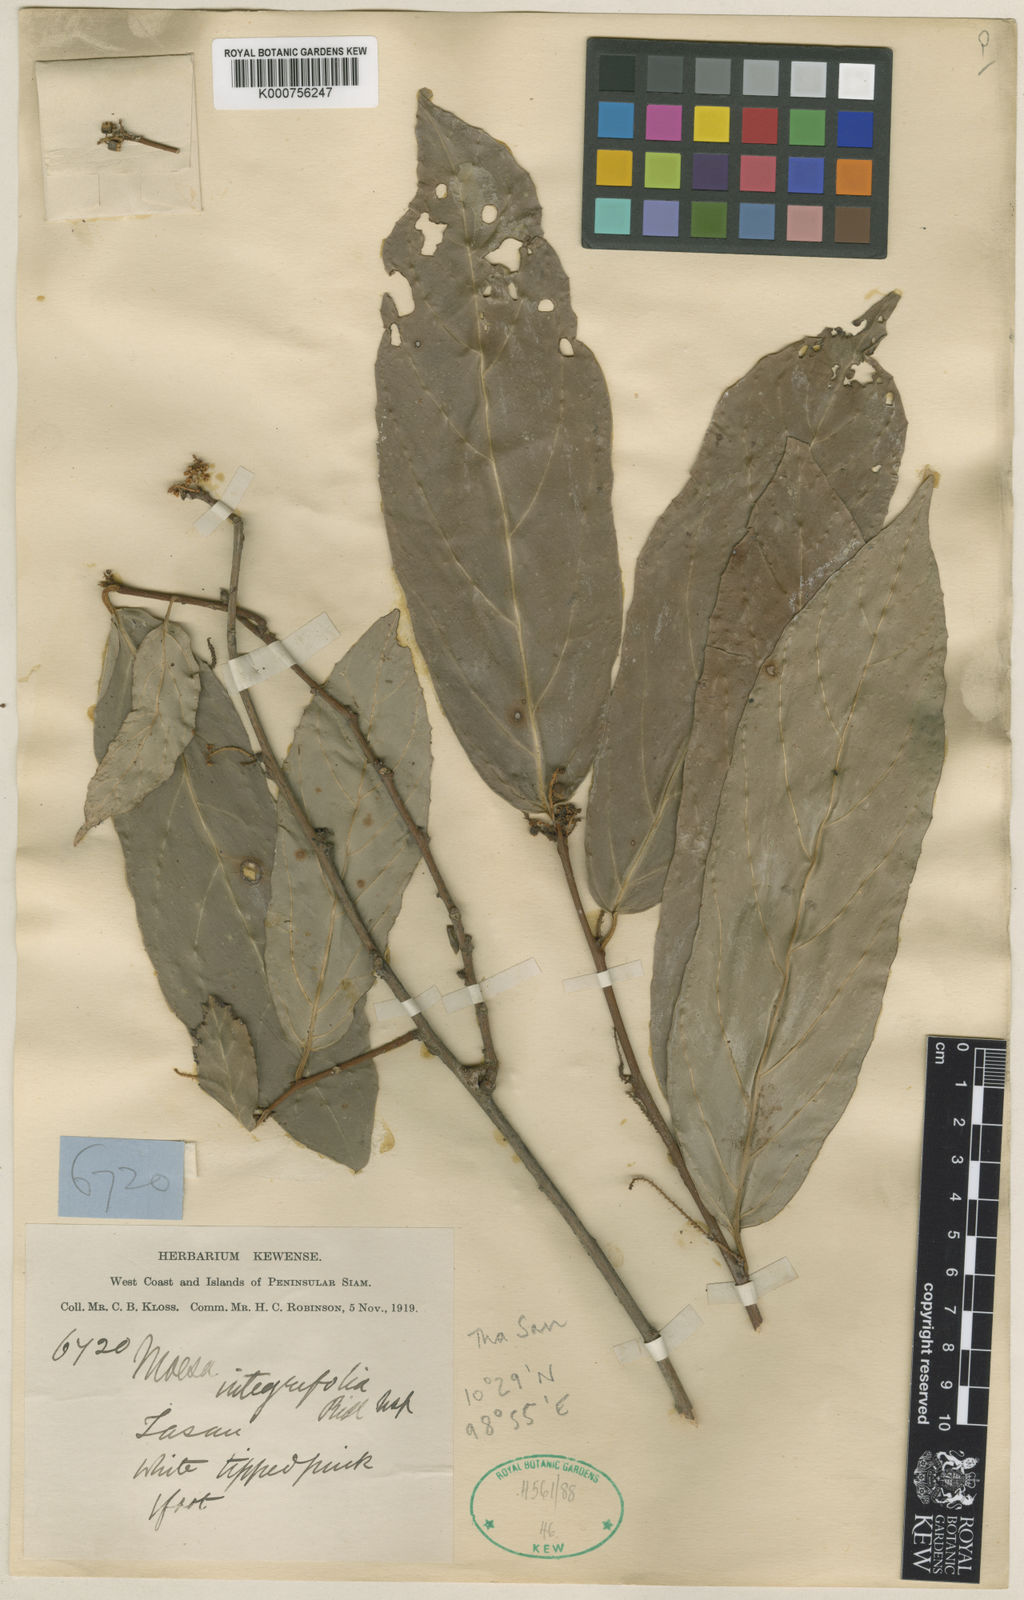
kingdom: Plantae
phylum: Tracheophyta
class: Magnoliopsida
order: Ericales
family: Primulaceae
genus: Maesa
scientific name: Maesa integrifolia
